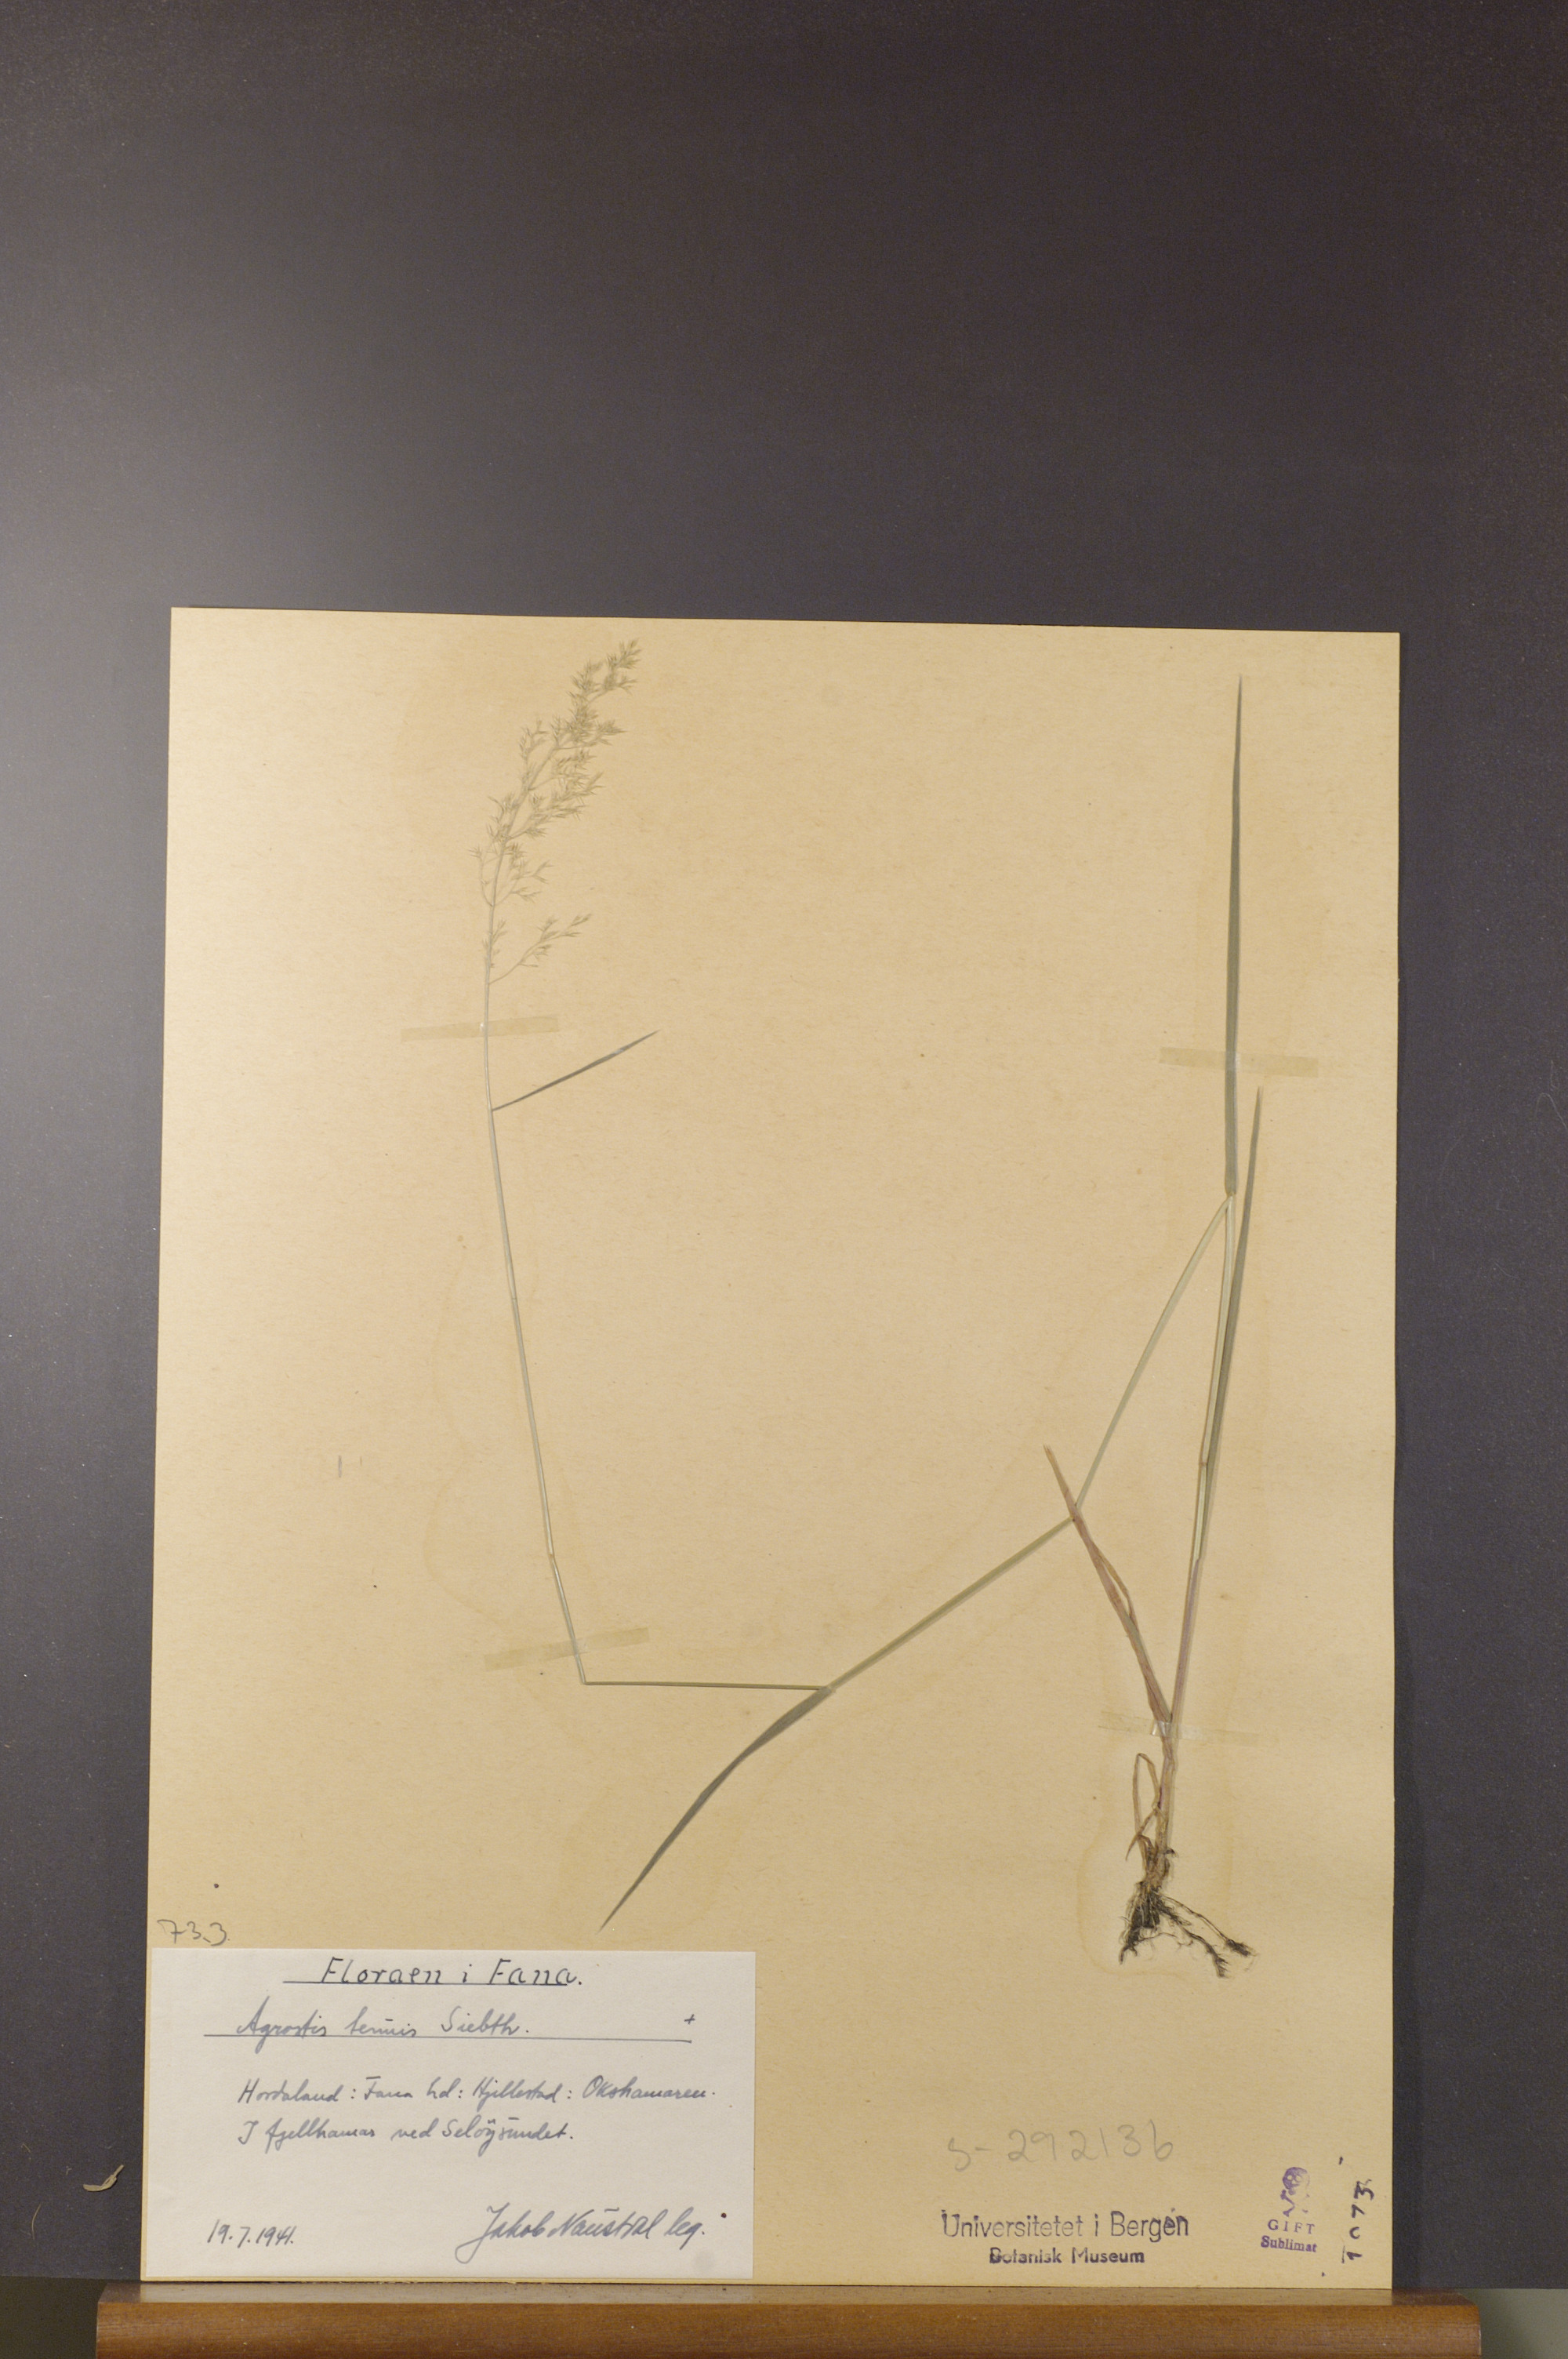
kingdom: Plantae
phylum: Tracheophyta
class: Liliopsida
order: Poales
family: Poaceae
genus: Agrostis
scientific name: Agrostis capillaris
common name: Colonial bentgrass
